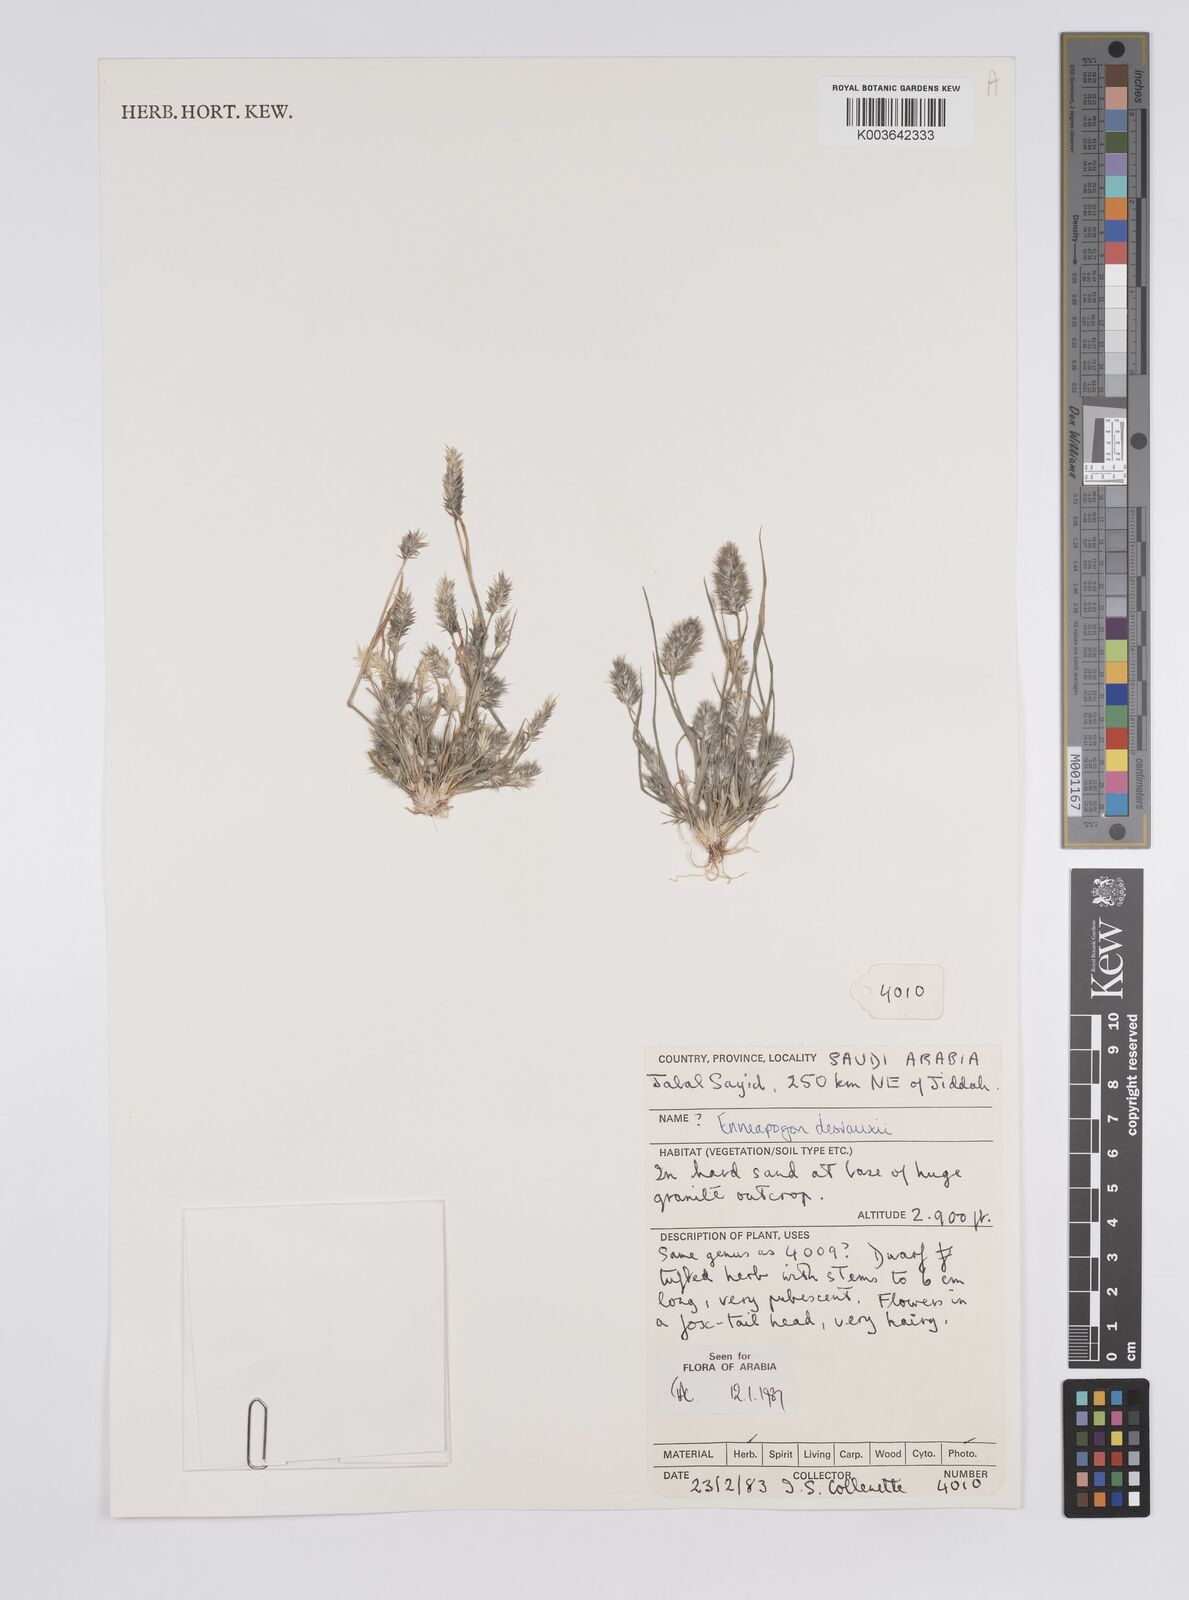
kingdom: Plantae
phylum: Tracheophyta
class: Liliopsida
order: Poales
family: Poaceae
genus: Enneapogon
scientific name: Enneapogon desvauxii
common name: Feather pappus grass
